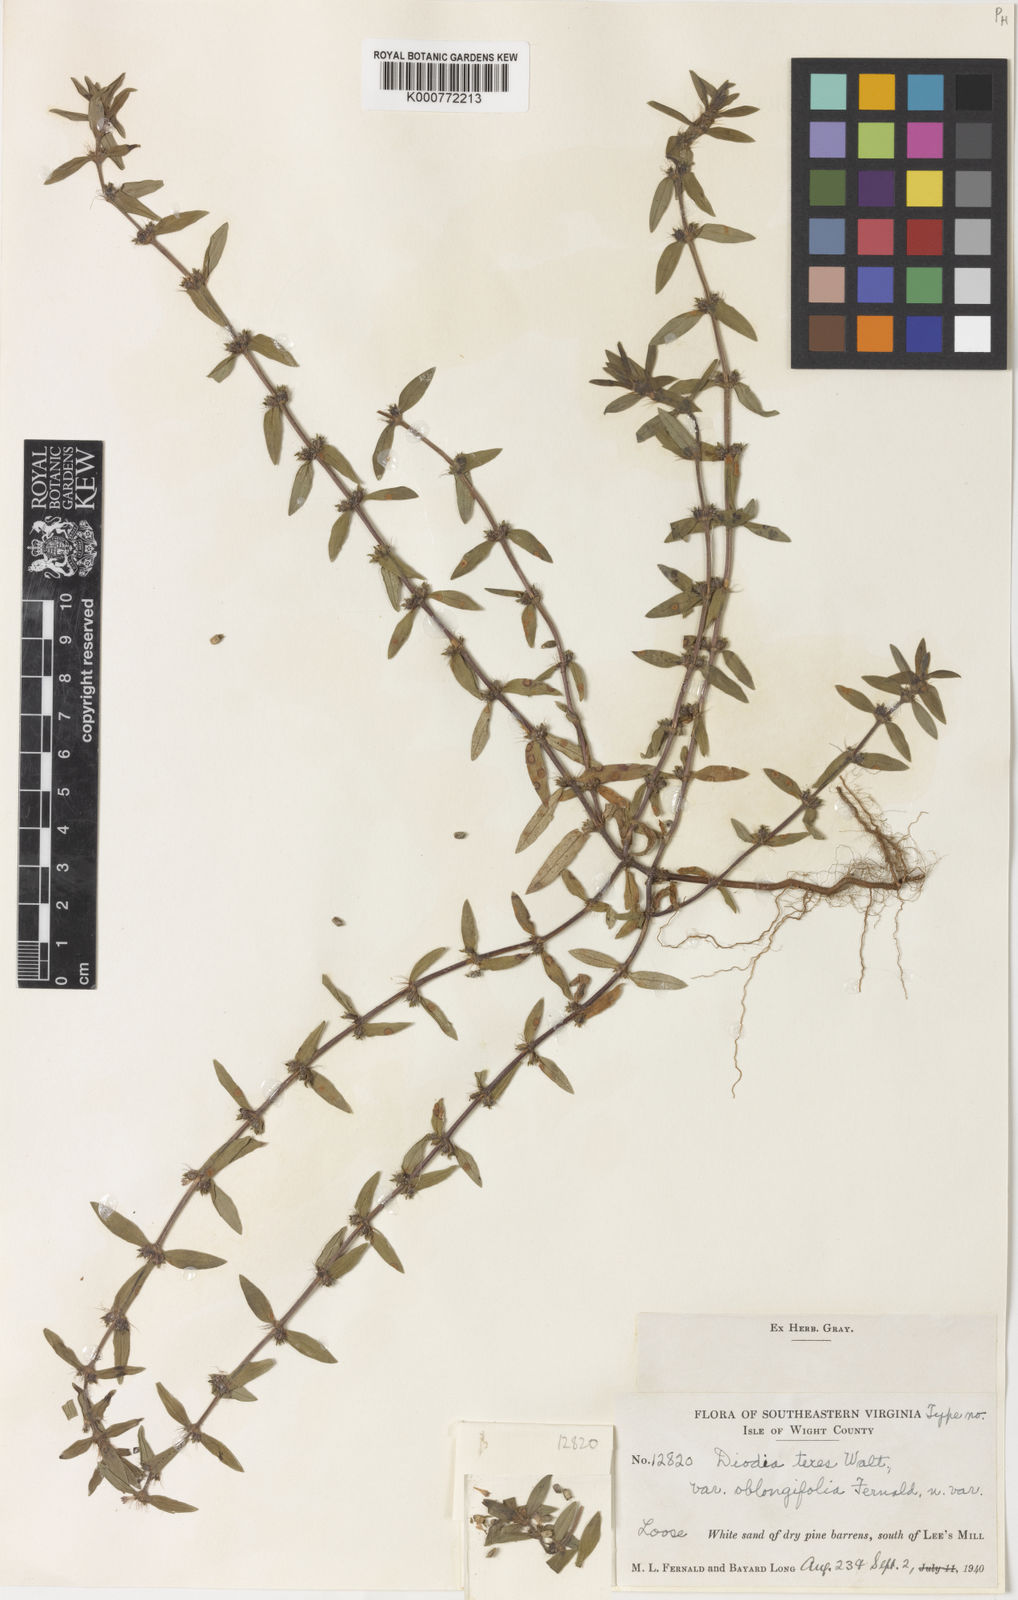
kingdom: Plantae
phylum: Tracheophyta
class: Magnoliopsida
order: Gentianales
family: Rubiaceae
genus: Hexasepalum
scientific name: Hexasepalum teres
